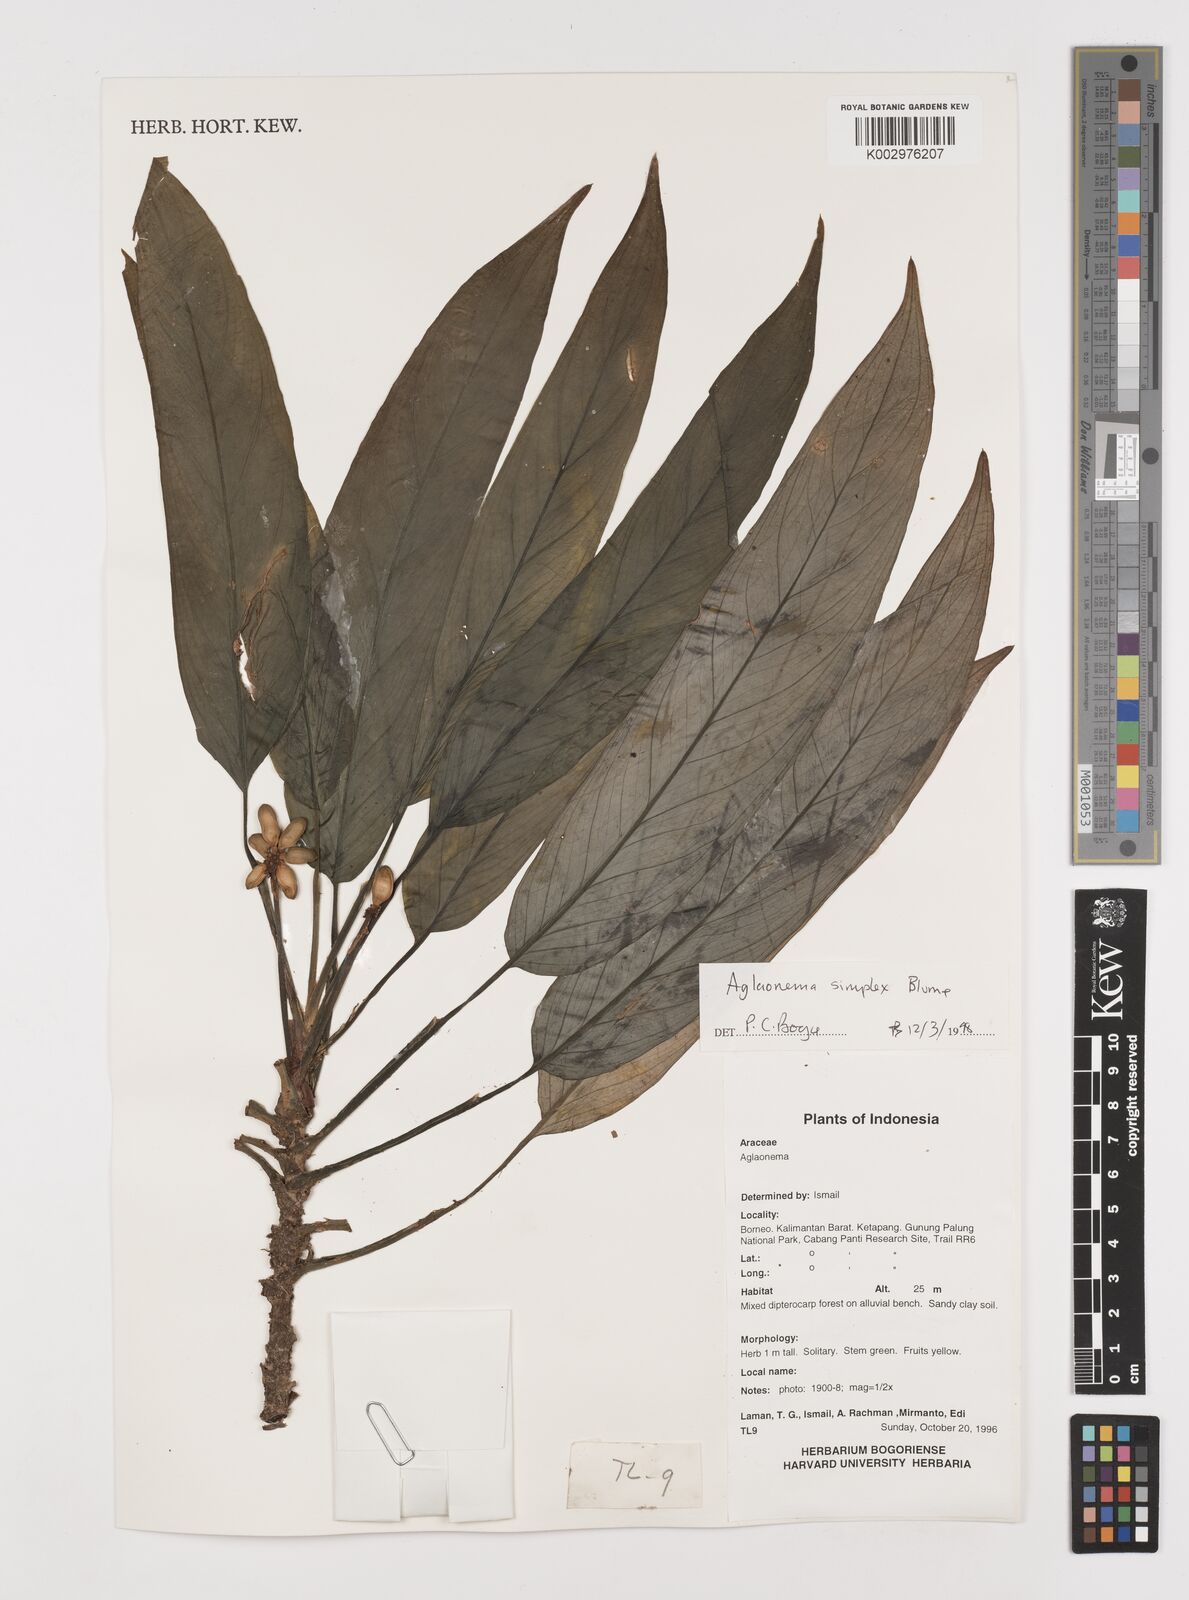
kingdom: Plantae
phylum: Tracheophyta
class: Liliopsida
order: Alismatales
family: Araceae
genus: Aglaonema
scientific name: Aglaonema simplex
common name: Malayan-sword
